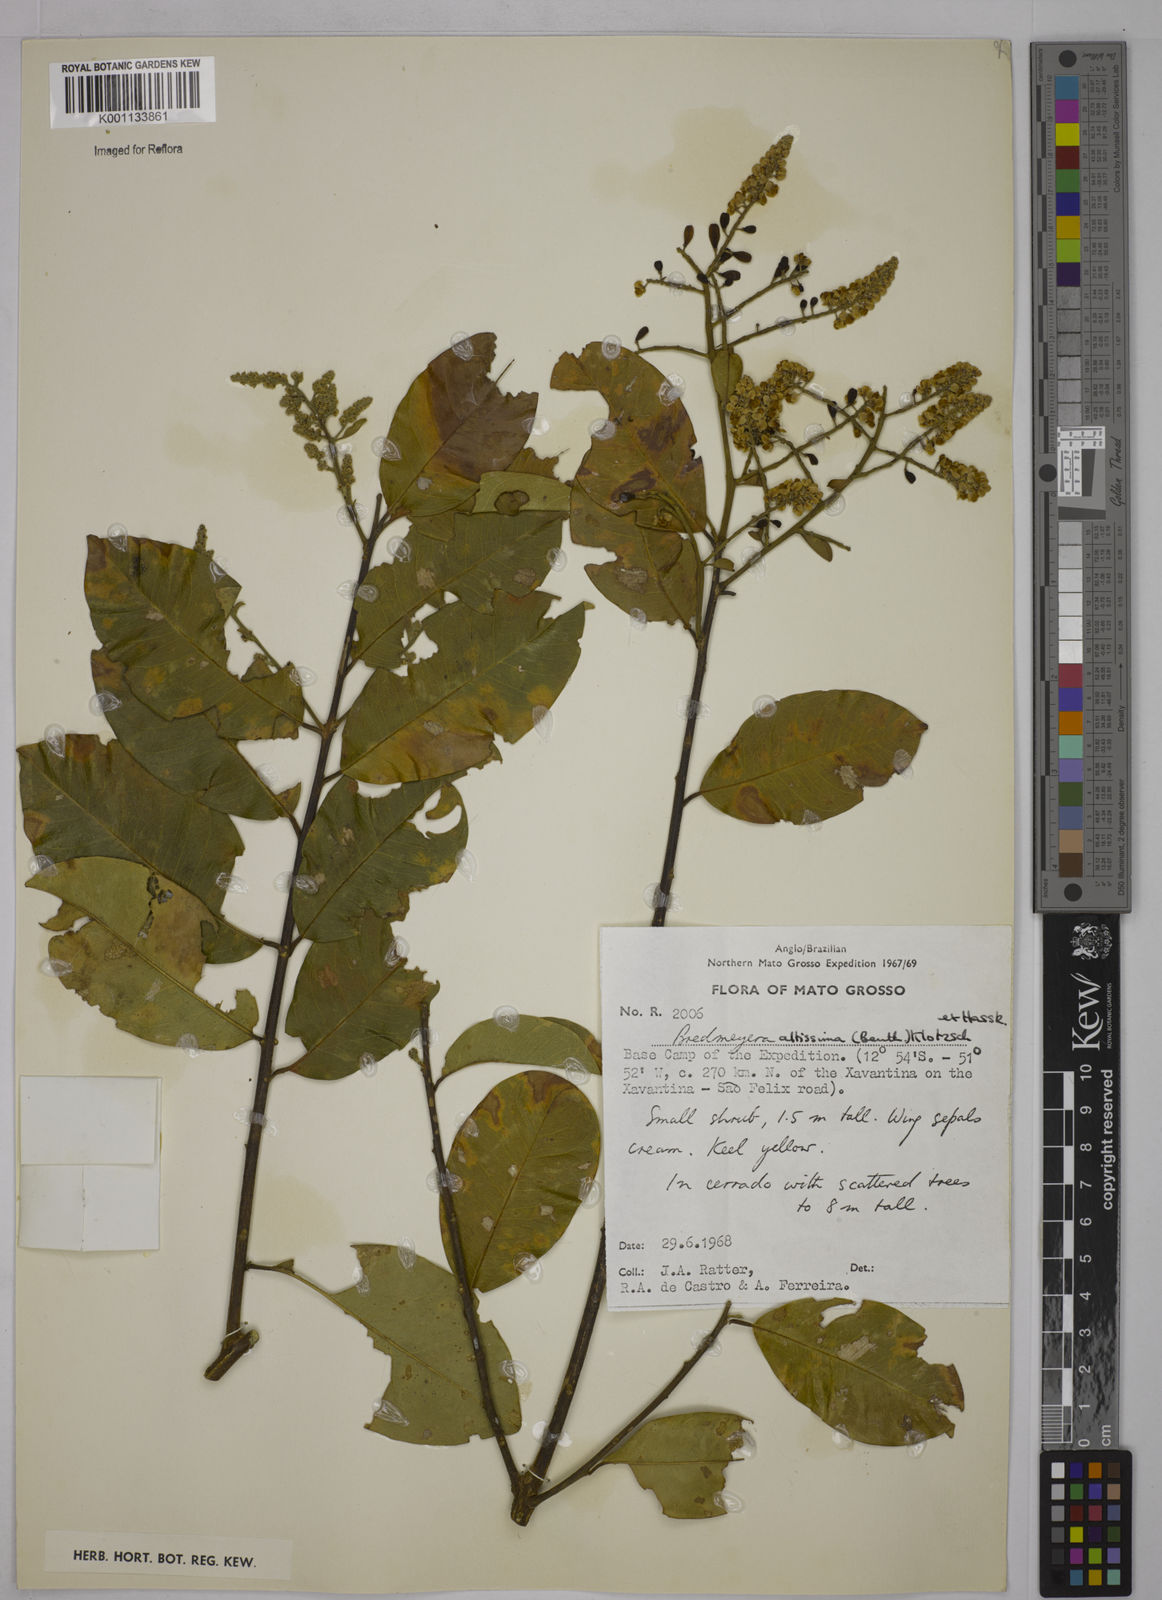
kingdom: Plantae
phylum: Tracheophyta
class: Magnoliopsida
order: Fabales
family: Polygalaceae
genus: Bredemeyera
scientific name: Bredemeyera divaricata
